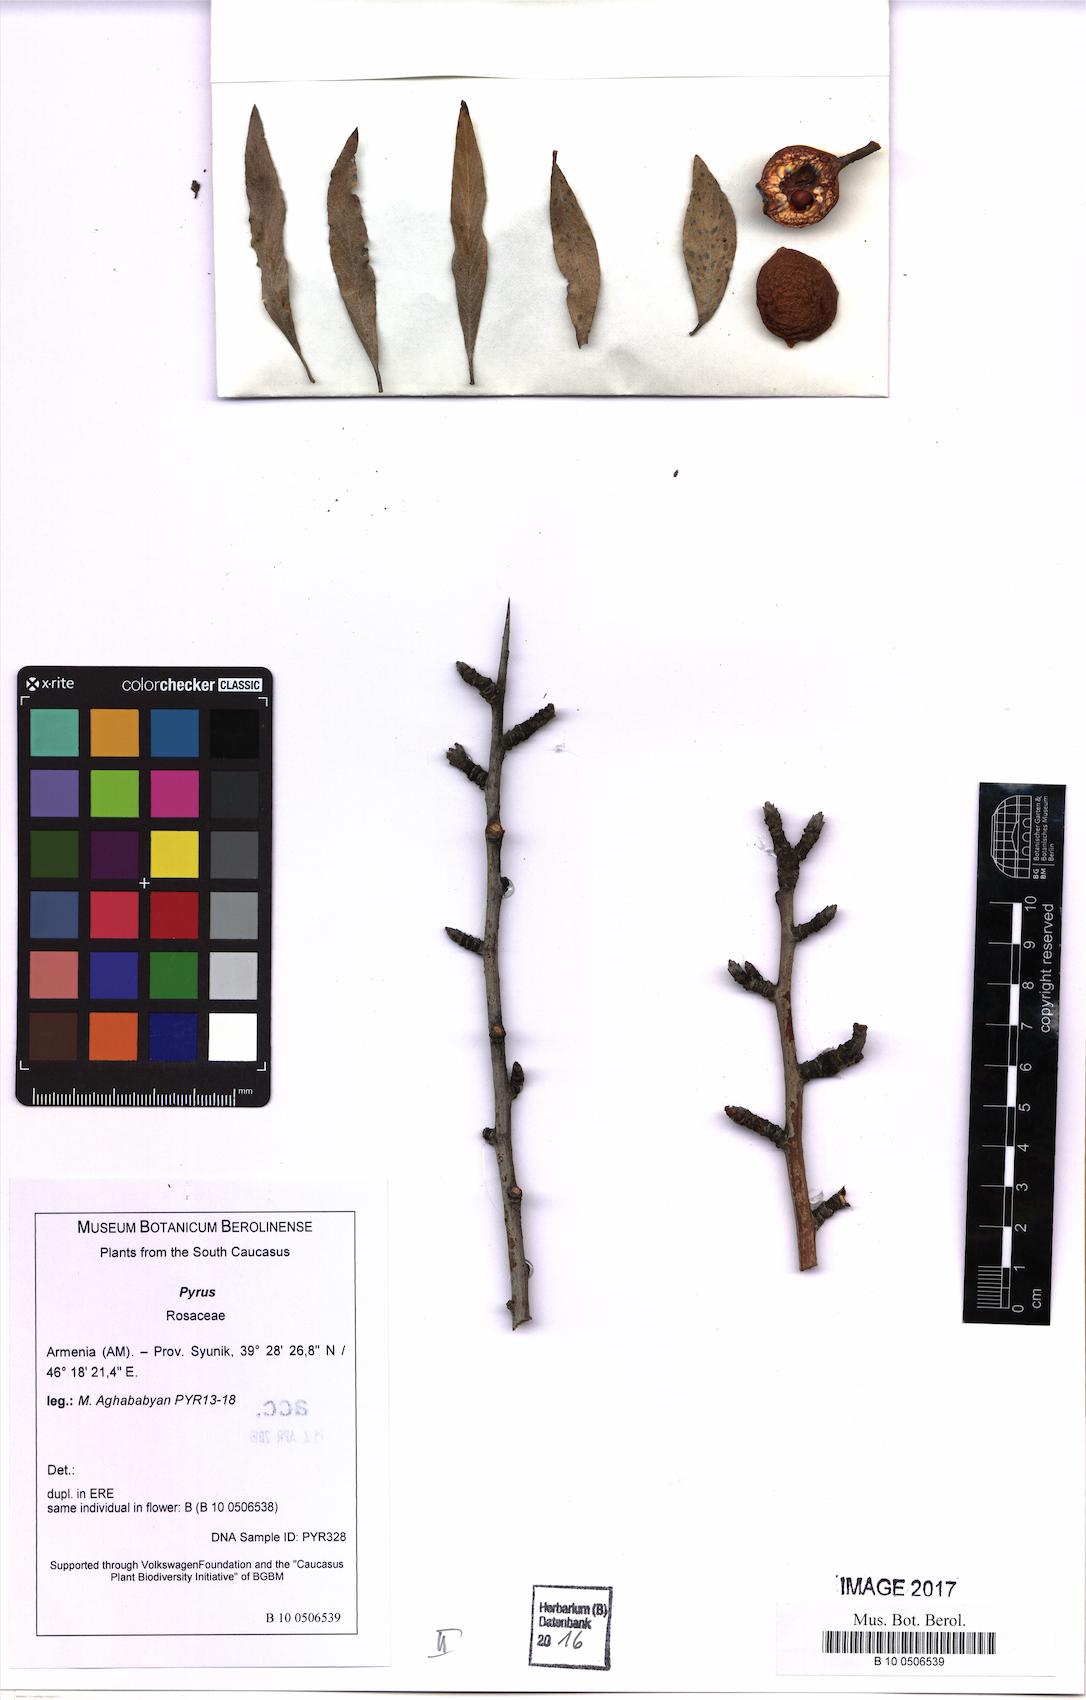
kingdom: Plantae
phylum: Tracheophyta
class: Magnoliopsida
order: Rosales
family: Rosaceae
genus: Pyrus
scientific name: Pyrus
